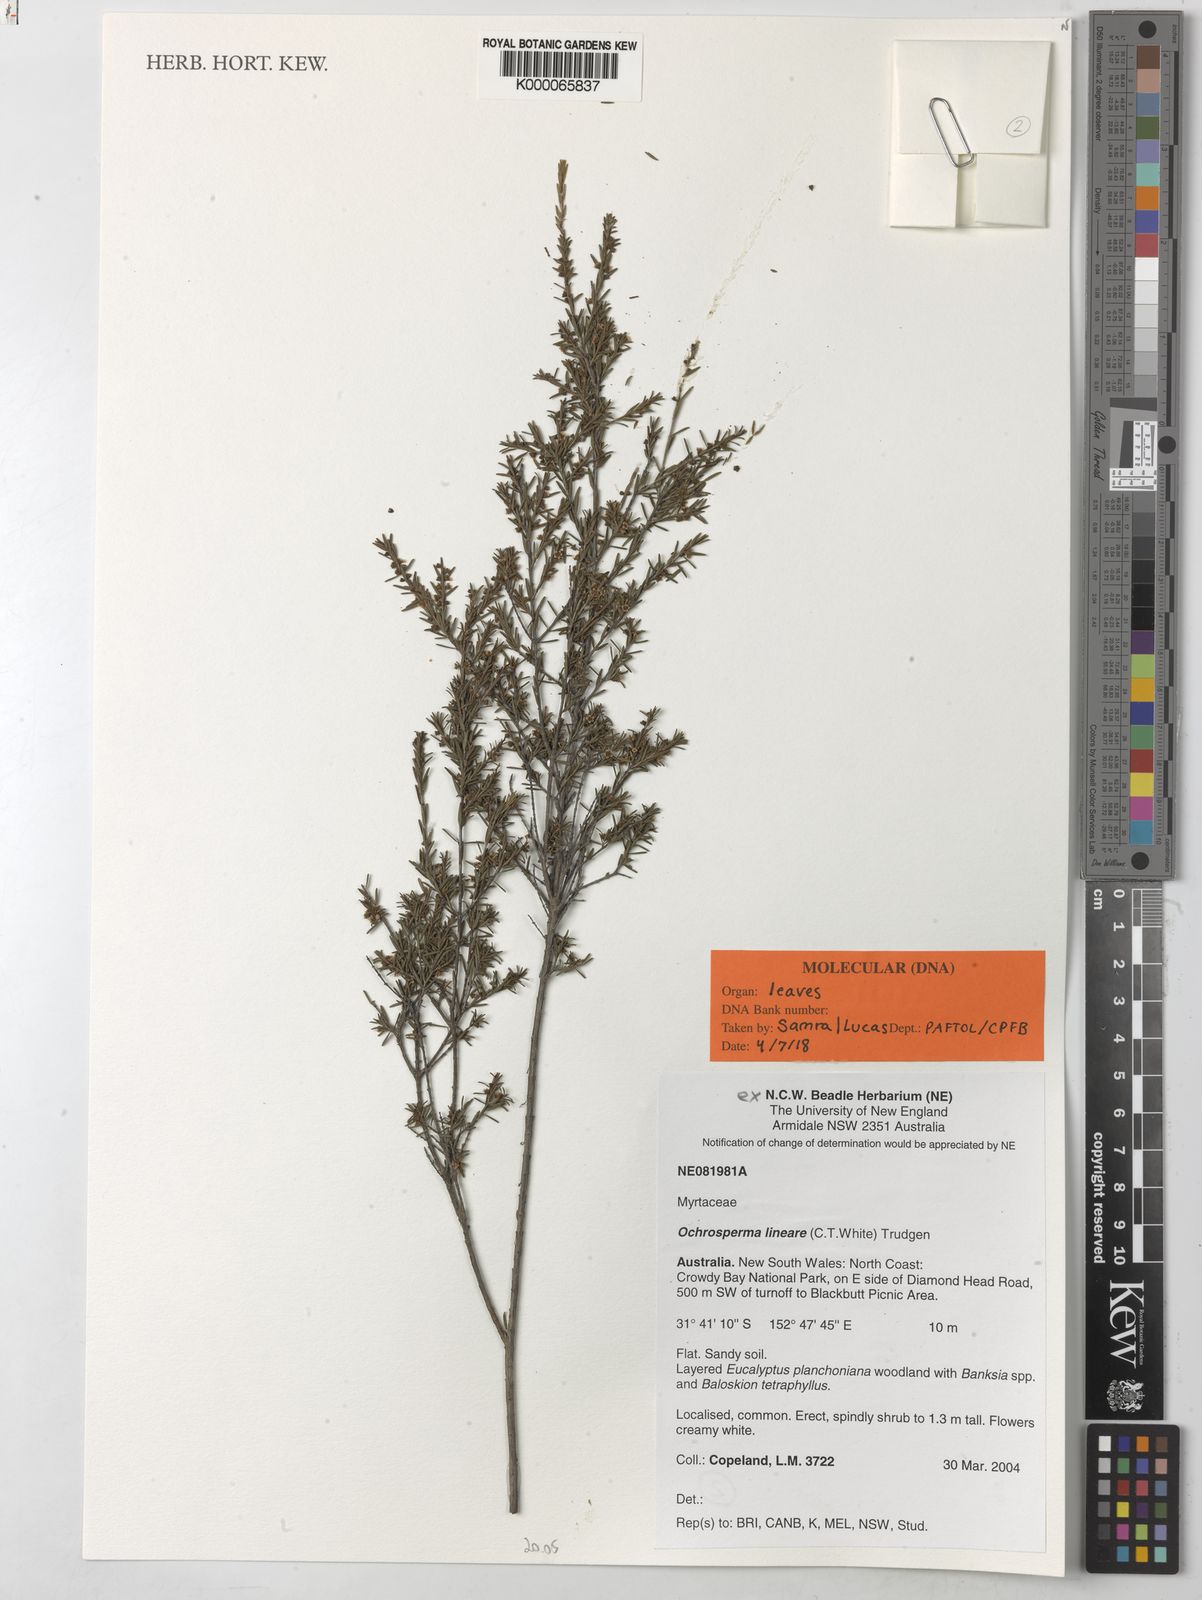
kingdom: Plantae
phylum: Tracheophyta
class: Magnoliopsida
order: Myrtales
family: Myrtaceae
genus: Ochrosperma
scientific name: Ochrosperma lineare
